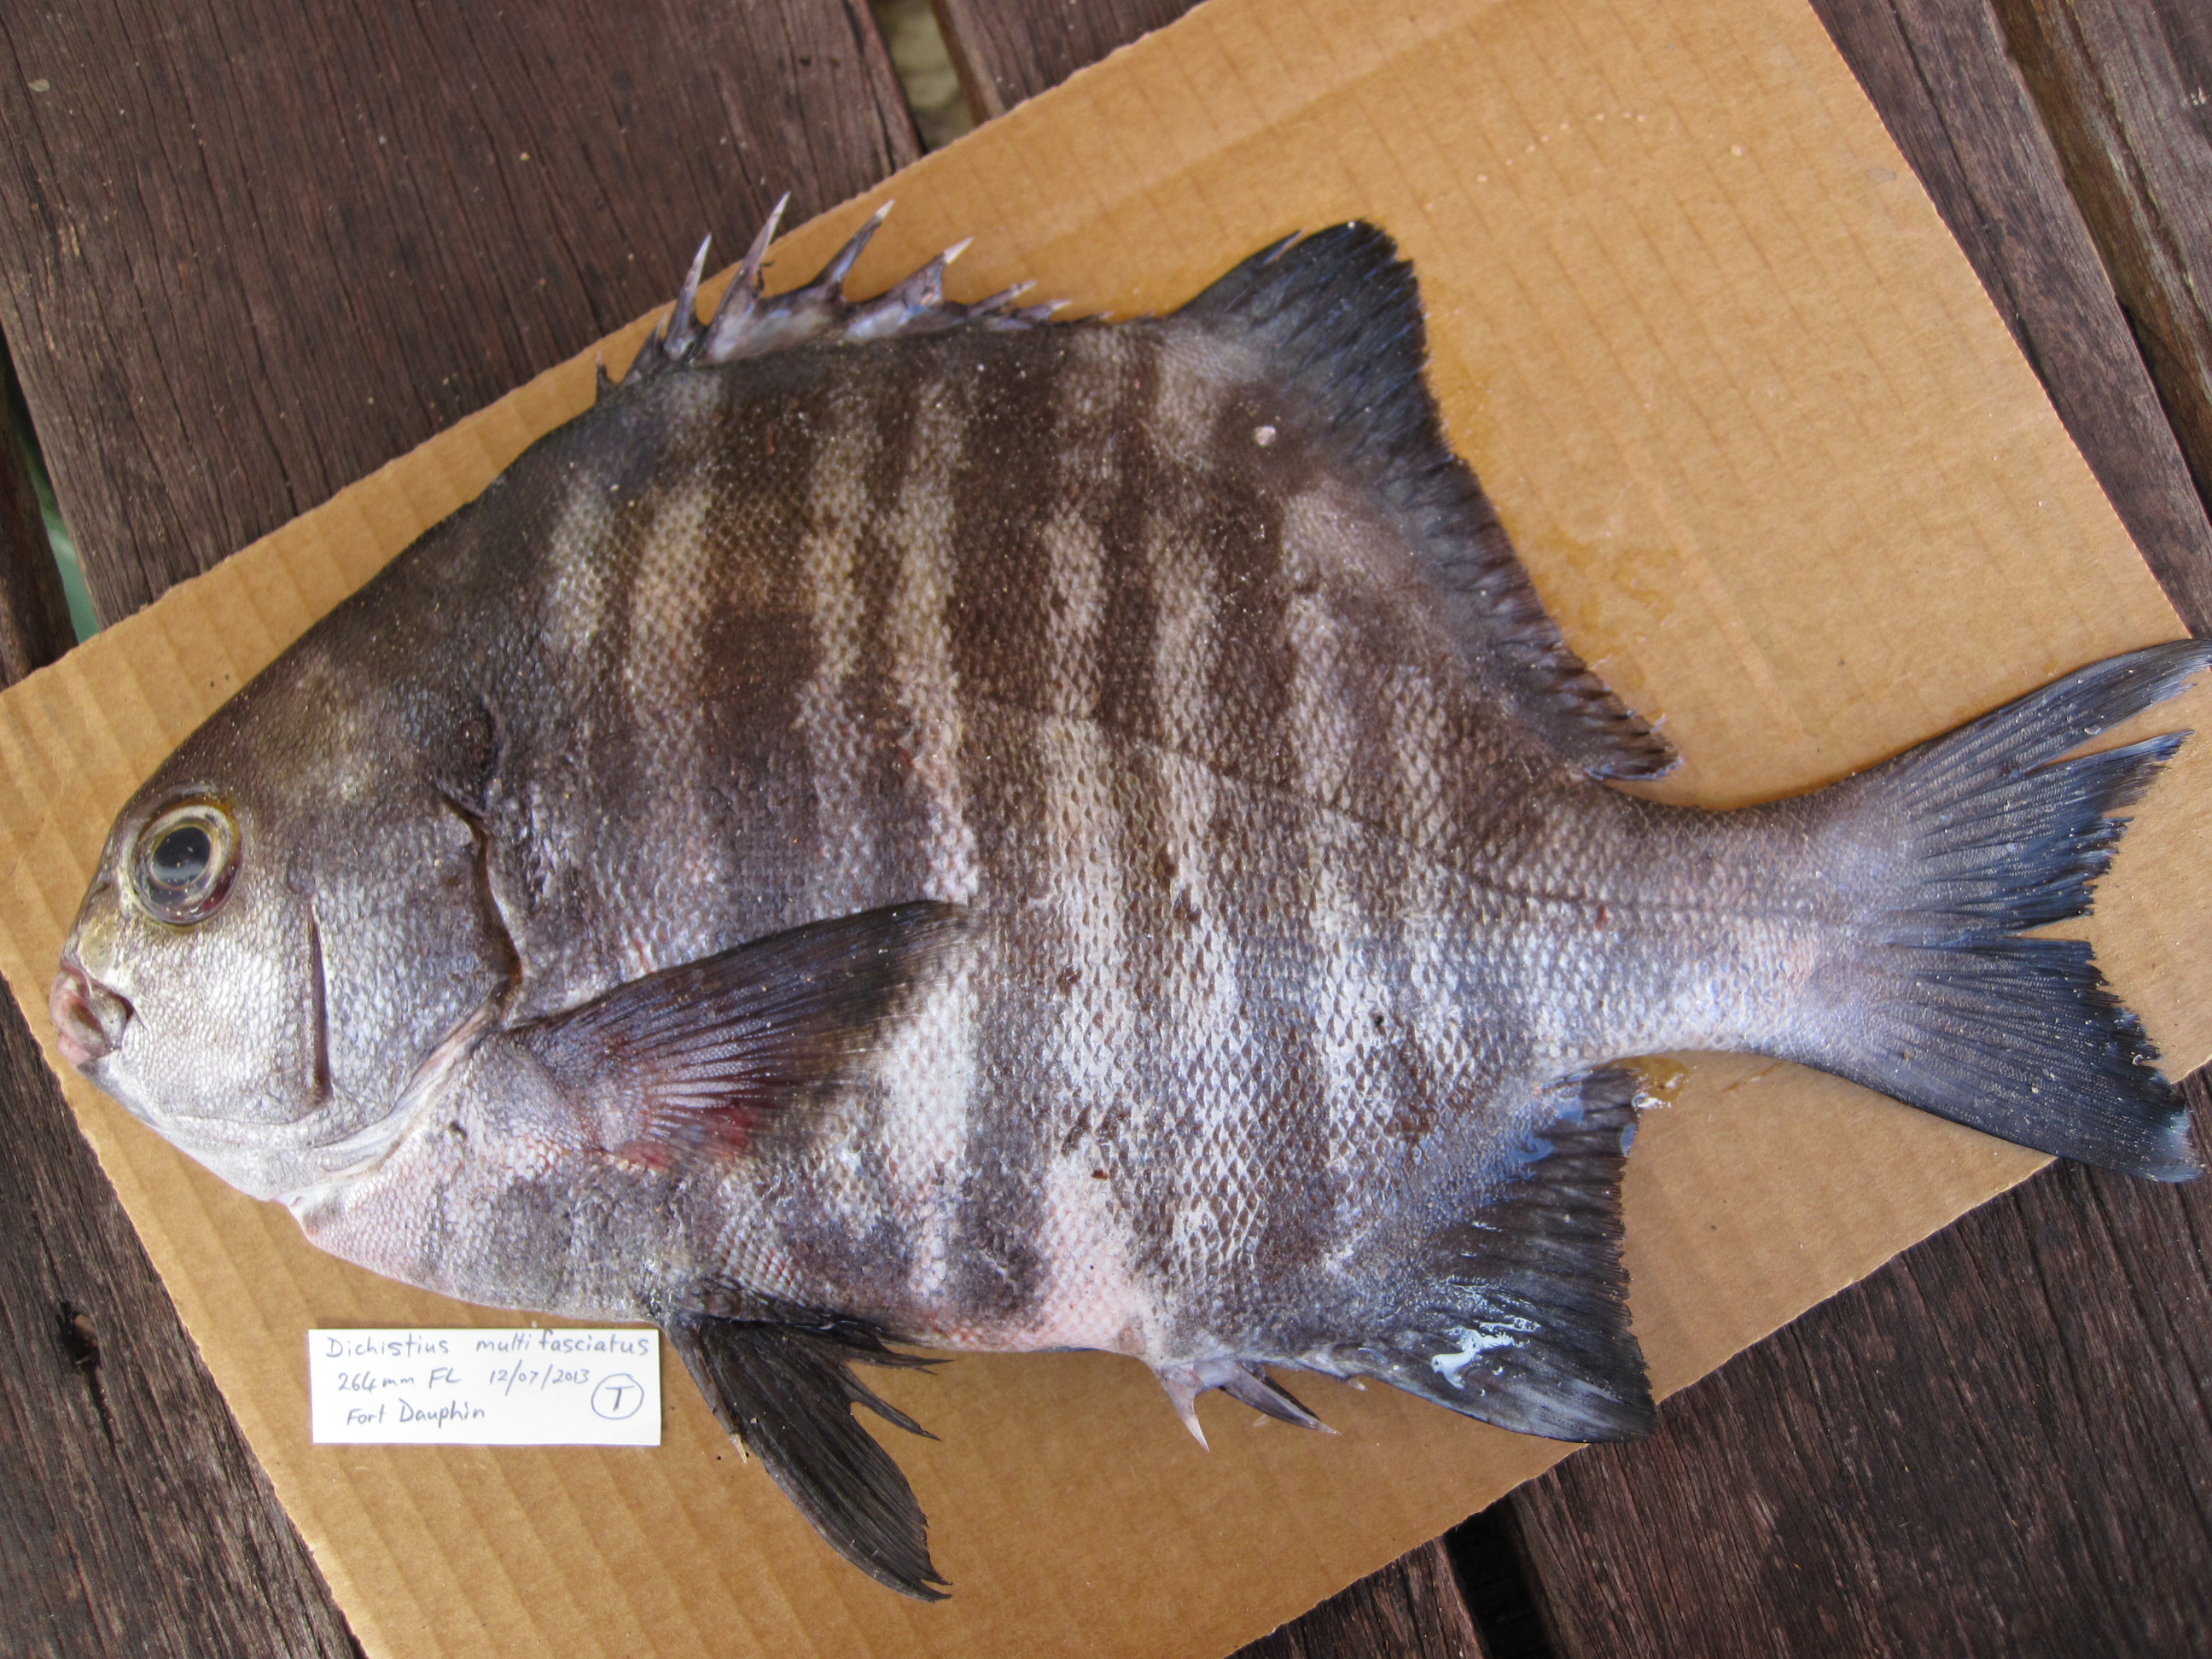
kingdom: Animalia
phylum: Chordata
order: Perciformes
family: Dichistiidae
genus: Dichistius
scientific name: Dichistius multifasciatus
